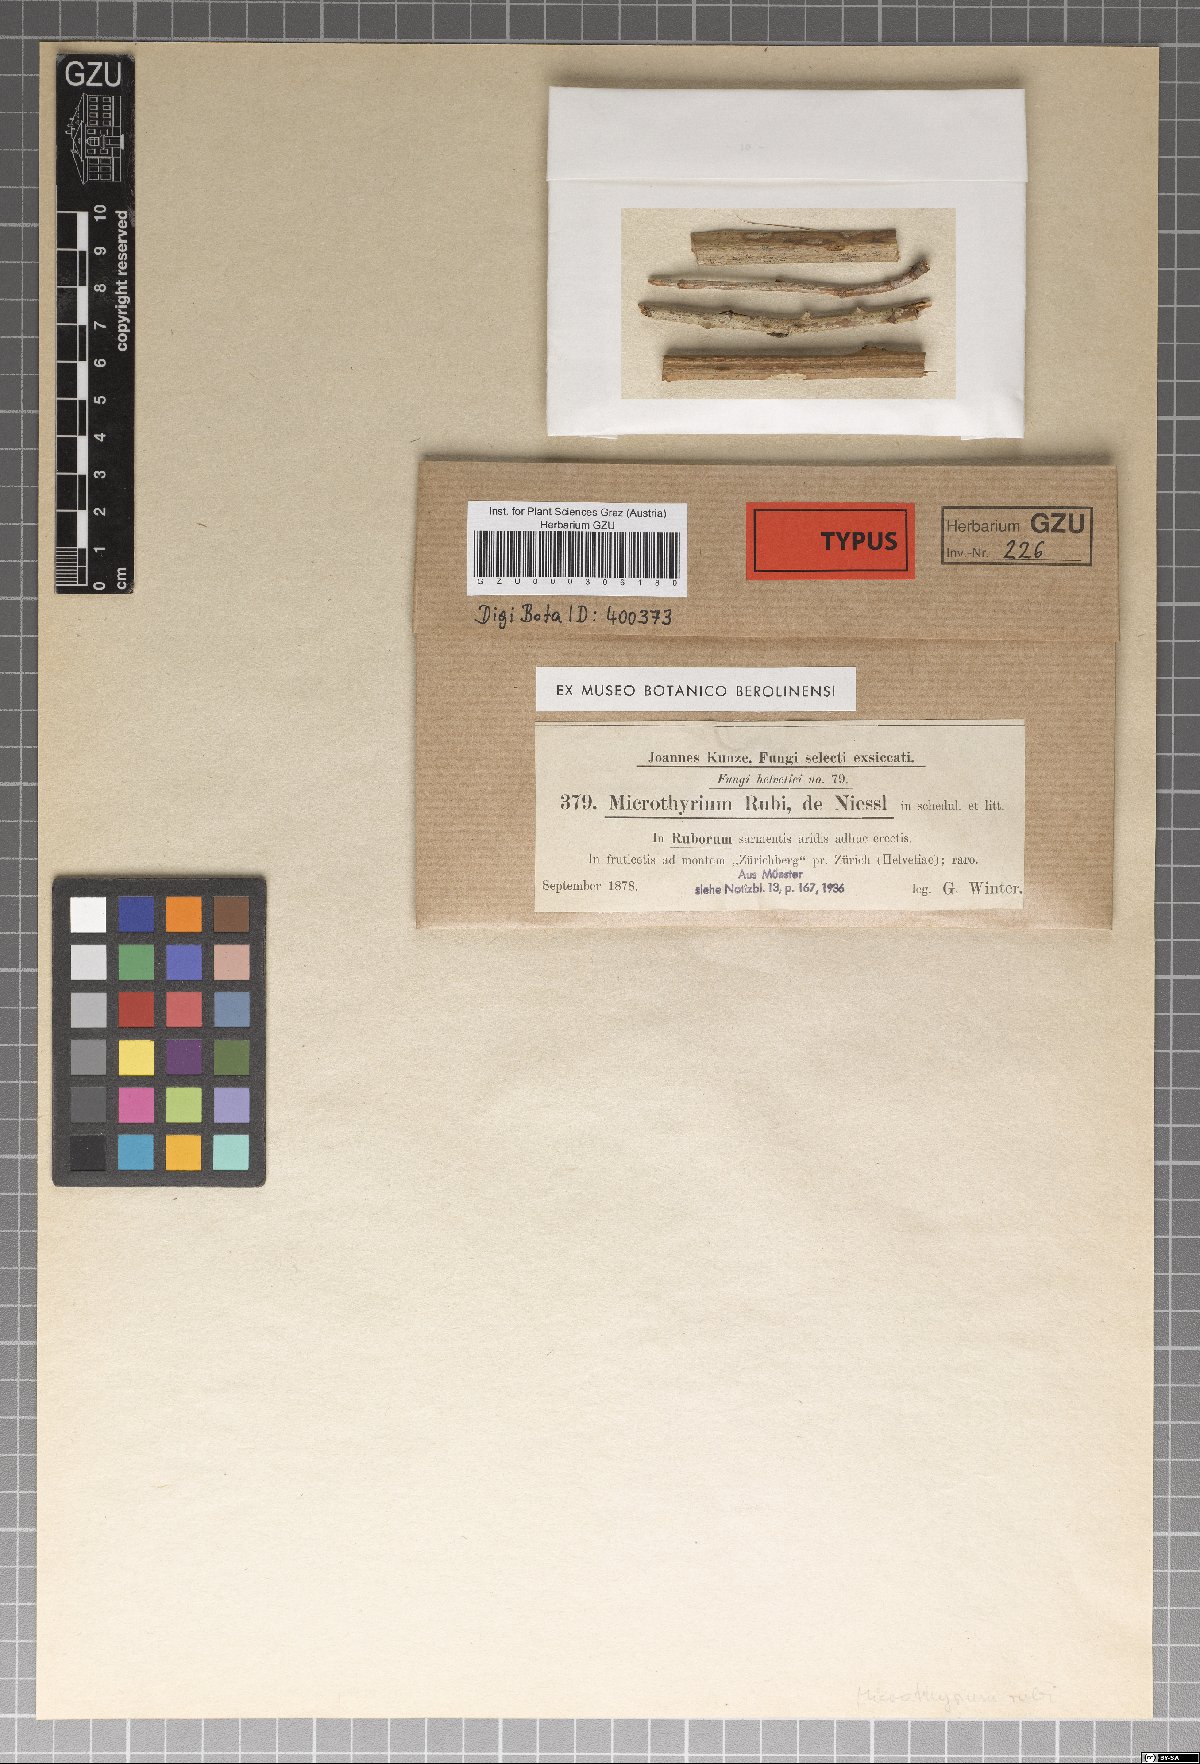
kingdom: Fungi
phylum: Ascomycota
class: Dothideomycetes
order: Microthyriales
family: Microthyriaceae
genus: Microthyrium
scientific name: Microthyrium
